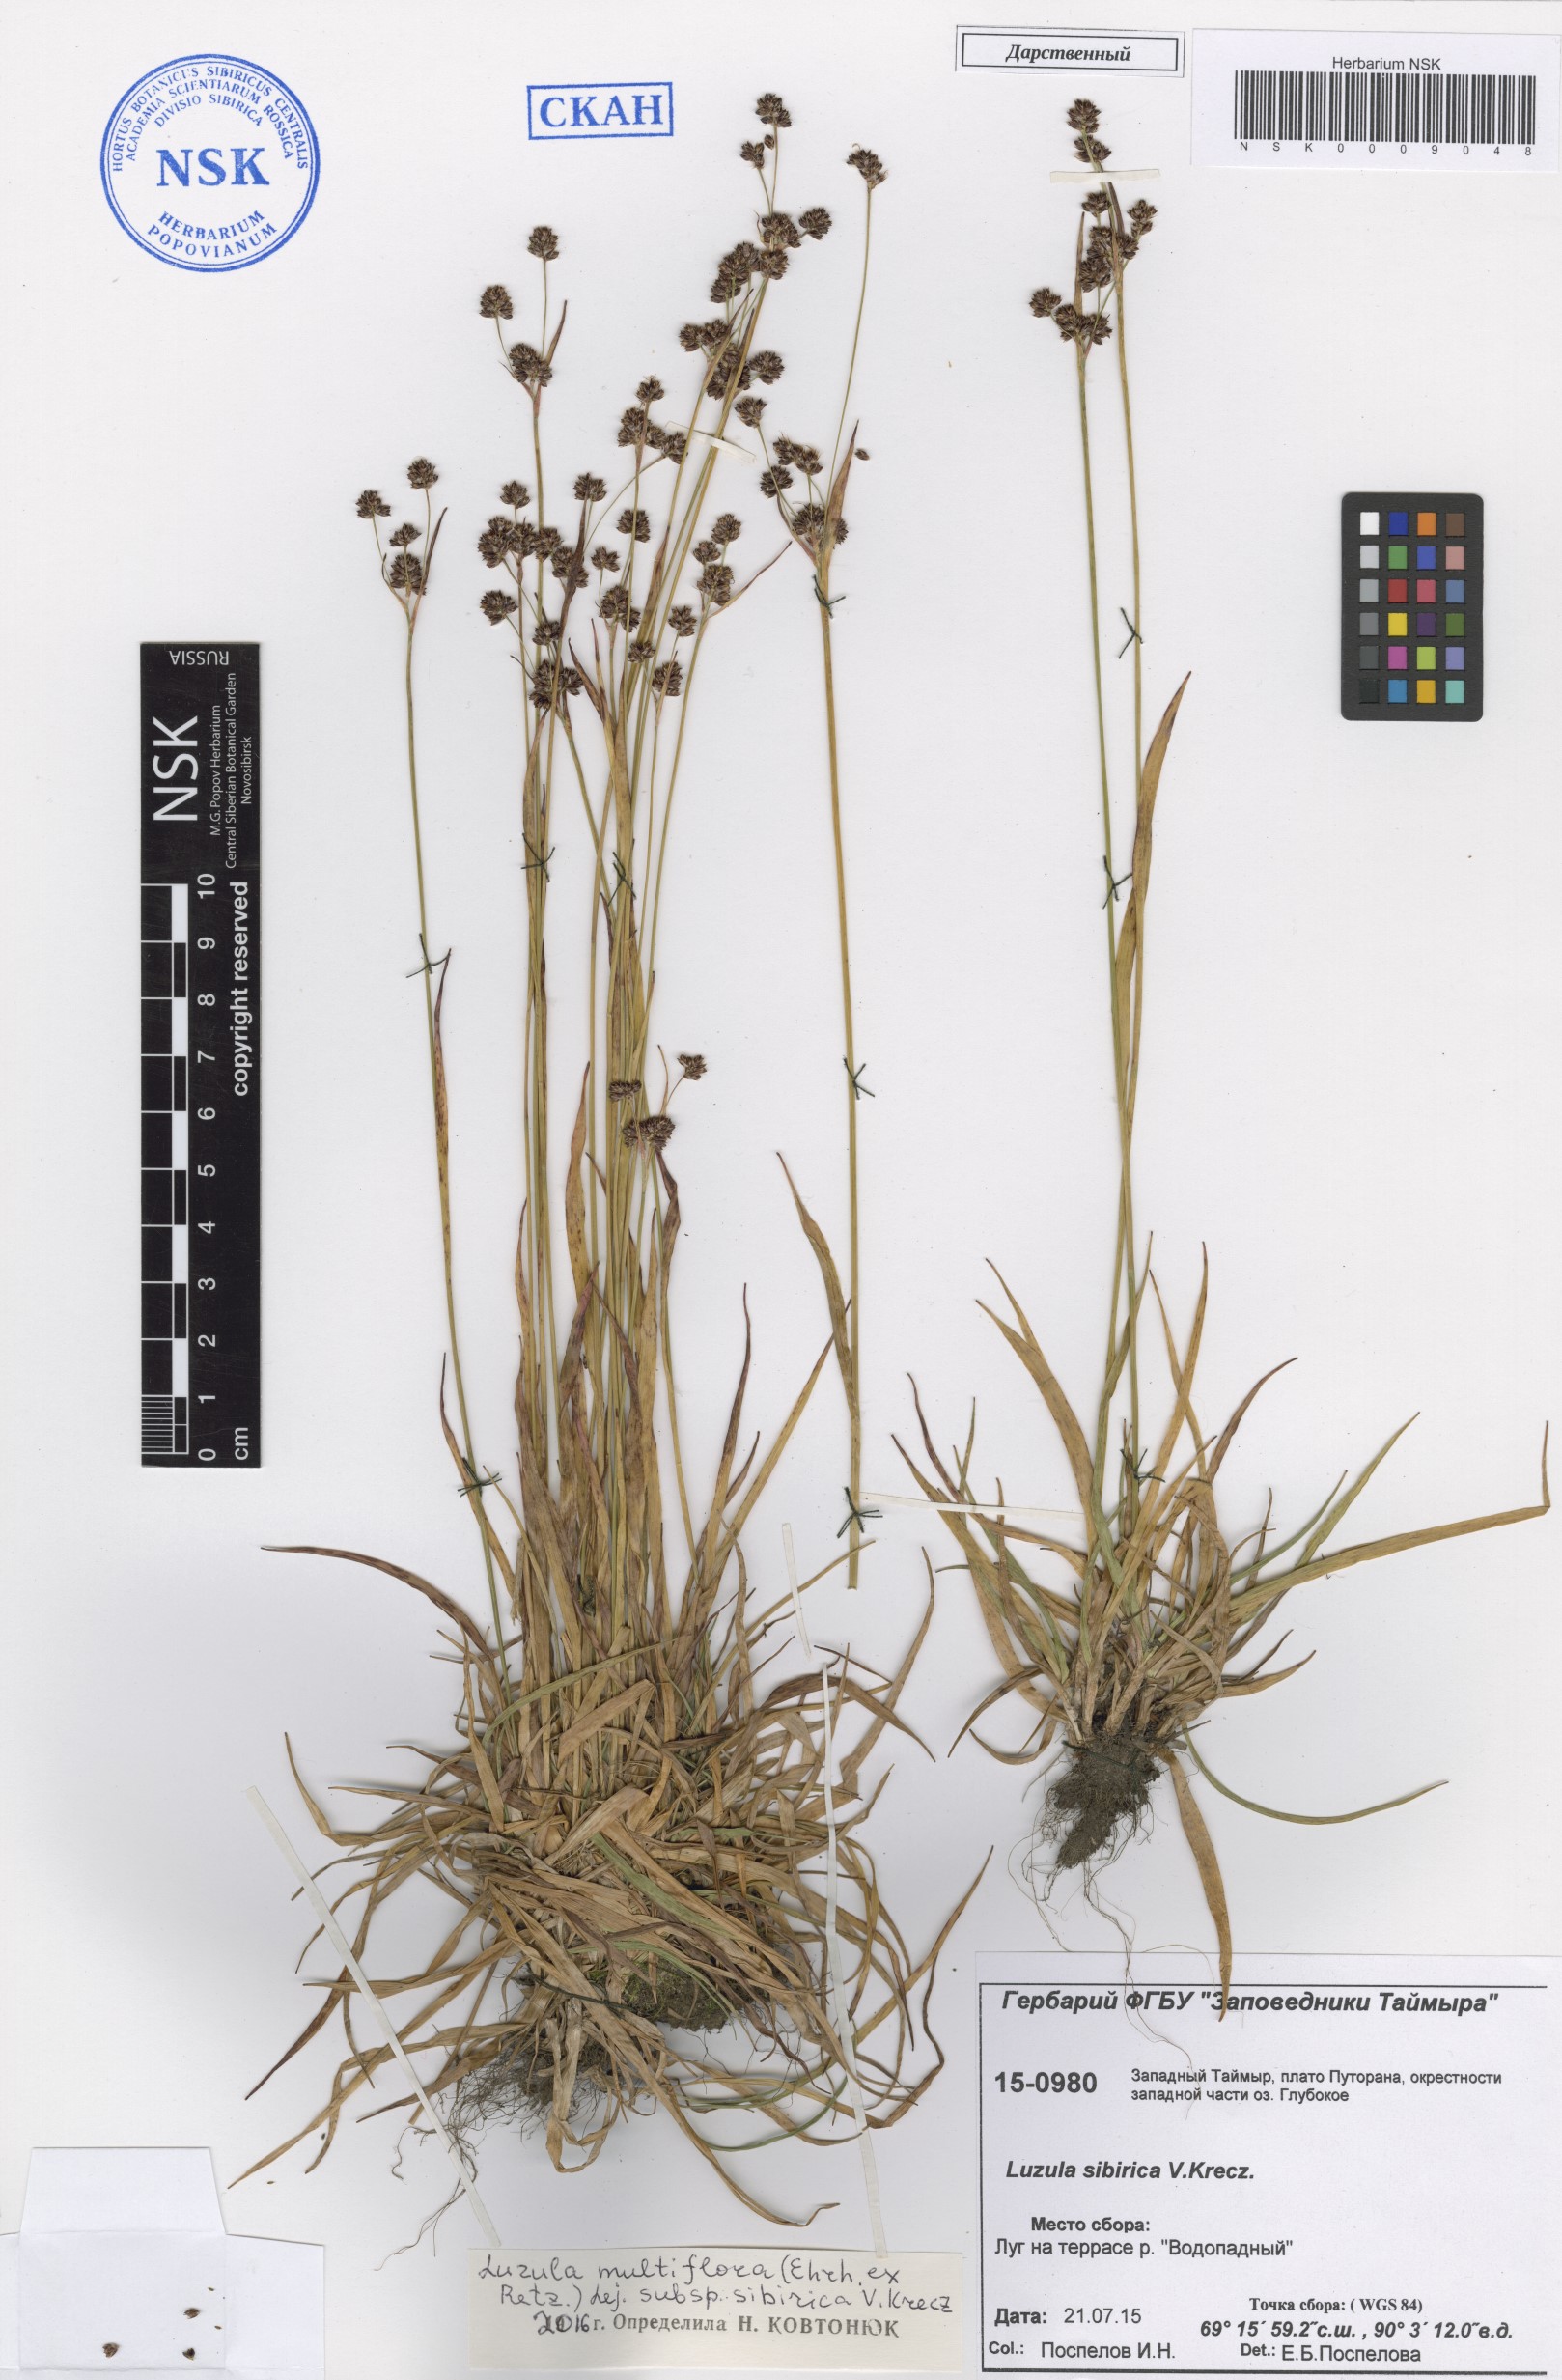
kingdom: Plantae
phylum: Tracheophyta
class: Liliopsida
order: Poales
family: Juncaceae
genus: Luzula
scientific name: Luzula multiflora
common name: Heath wood-rush
